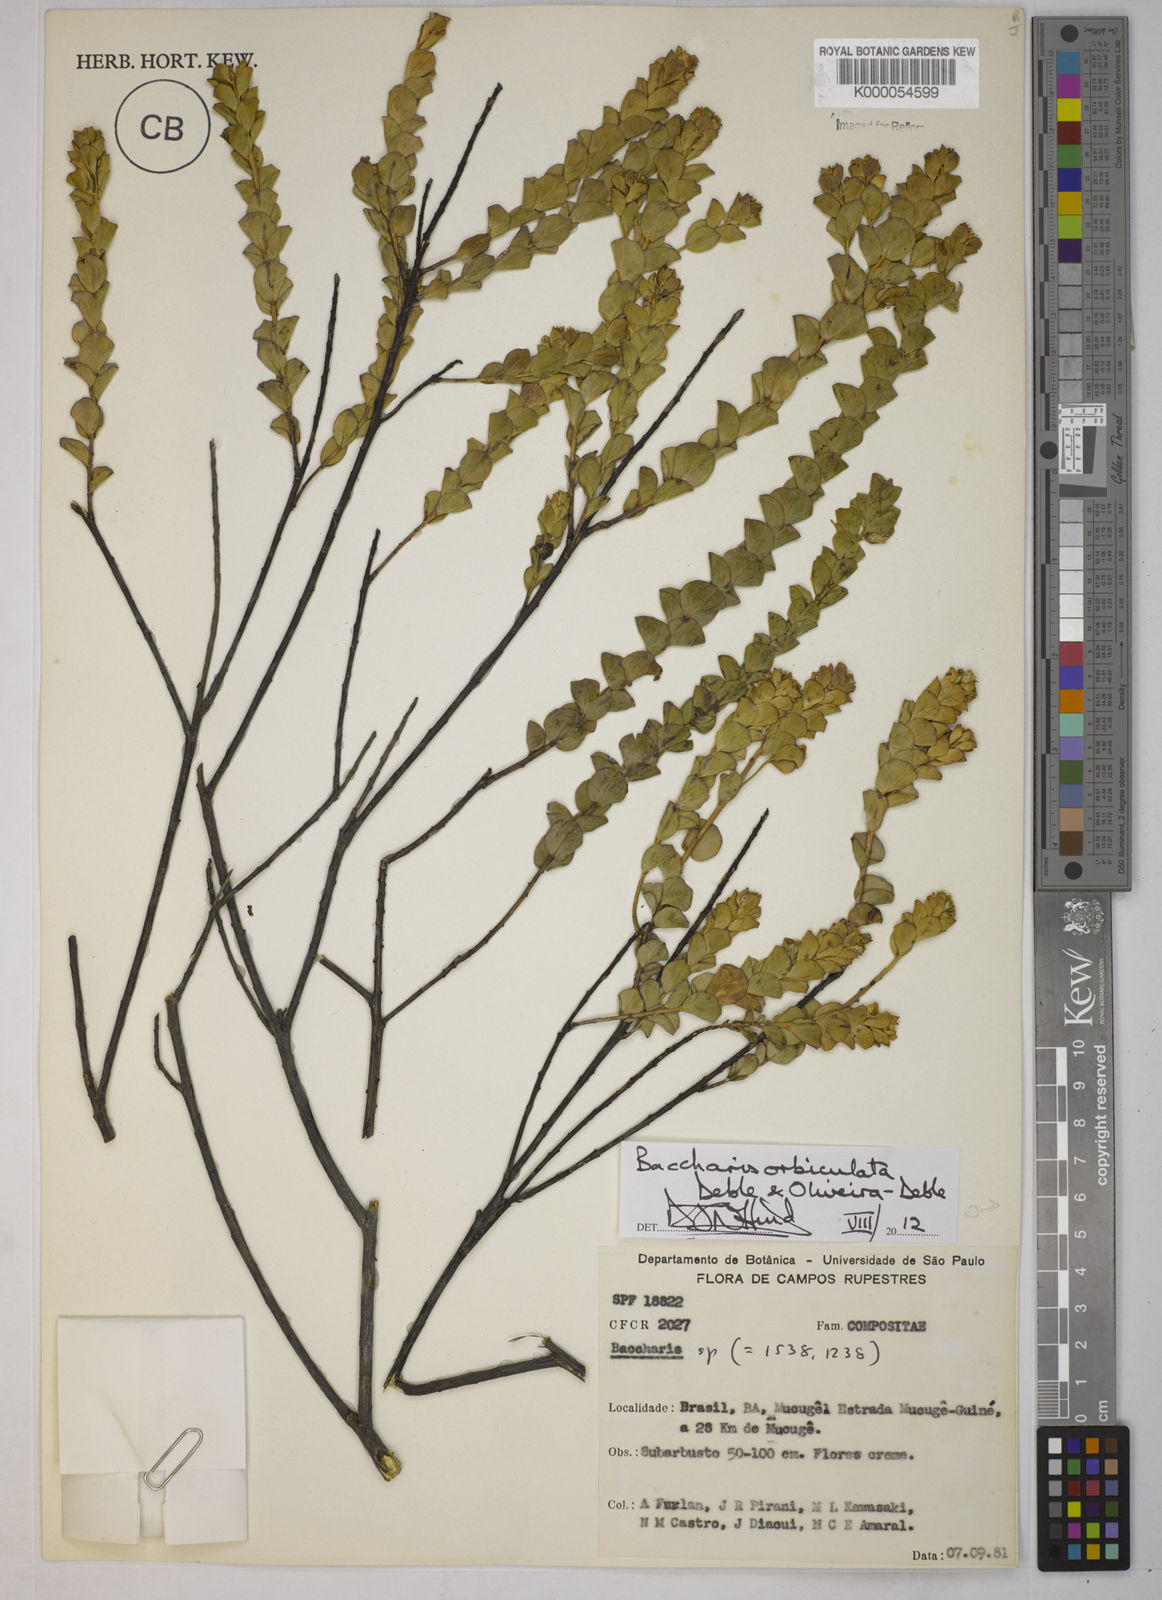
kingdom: Plantae
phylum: Tracheophyta
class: Magnoliopsida
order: Asterales
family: Asteraceae
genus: Baccharis
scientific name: Baccharis
